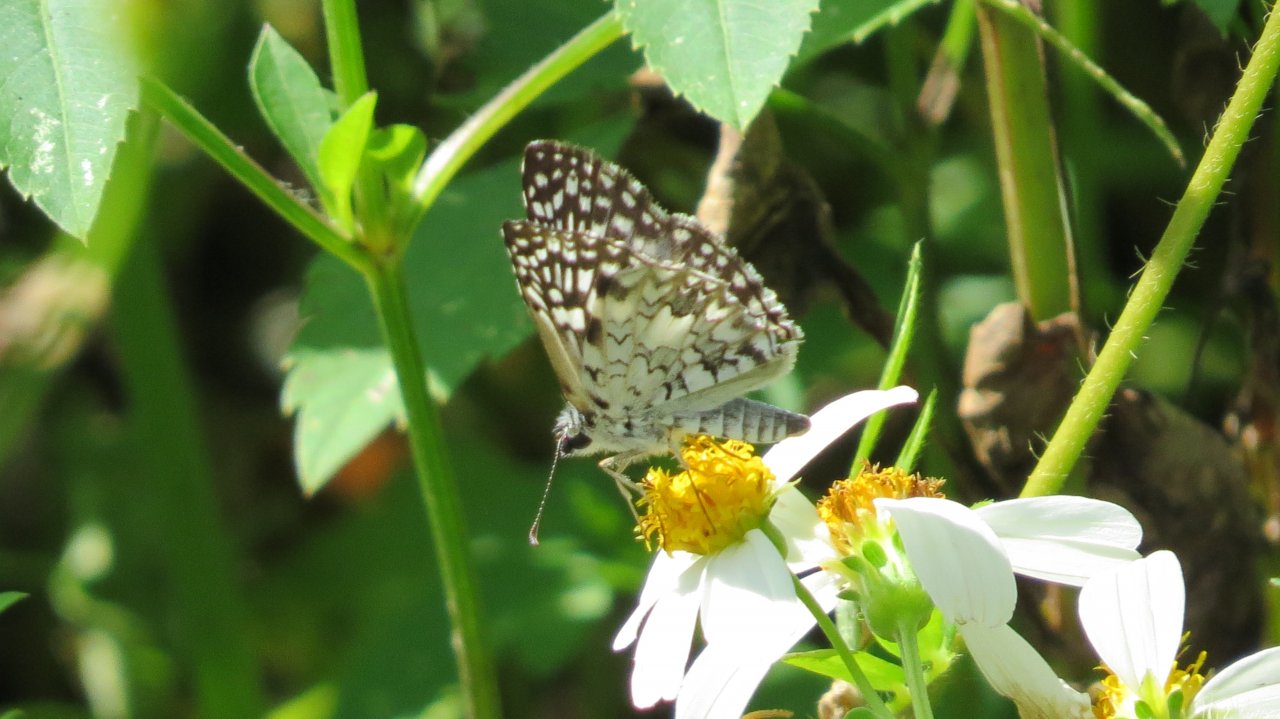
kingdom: Animalia
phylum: Arthropoda
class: Insecta
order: Lepidoptera
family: Hesperiidae
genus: Pyrgus
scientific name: Pyrgus oileus
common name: Tropical Checkered-Skipper
